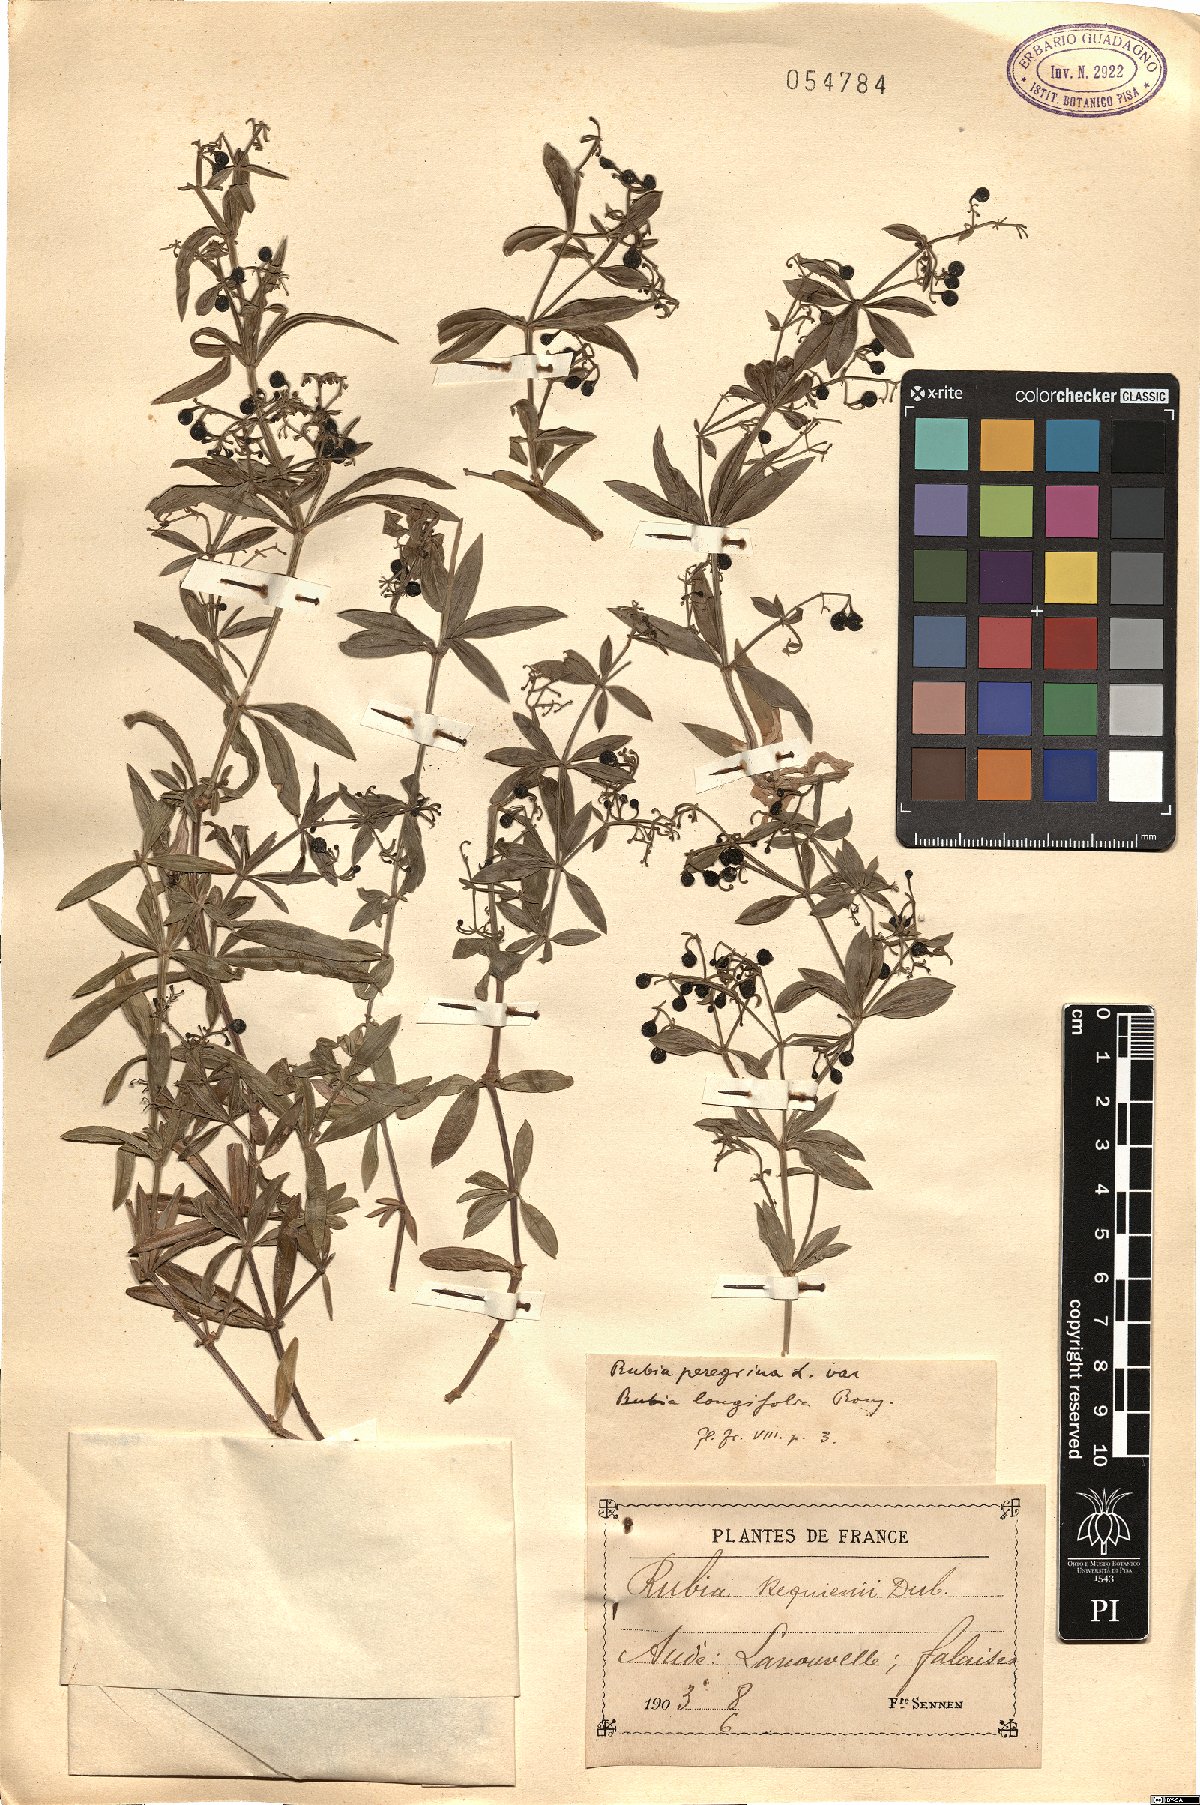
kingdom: Plantae
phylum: Tracheophyta
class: Magnoliopsida
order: Gentianales
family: Rubiaceae
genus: Rubia
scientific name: Rubia peregrina
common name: Wild madder
